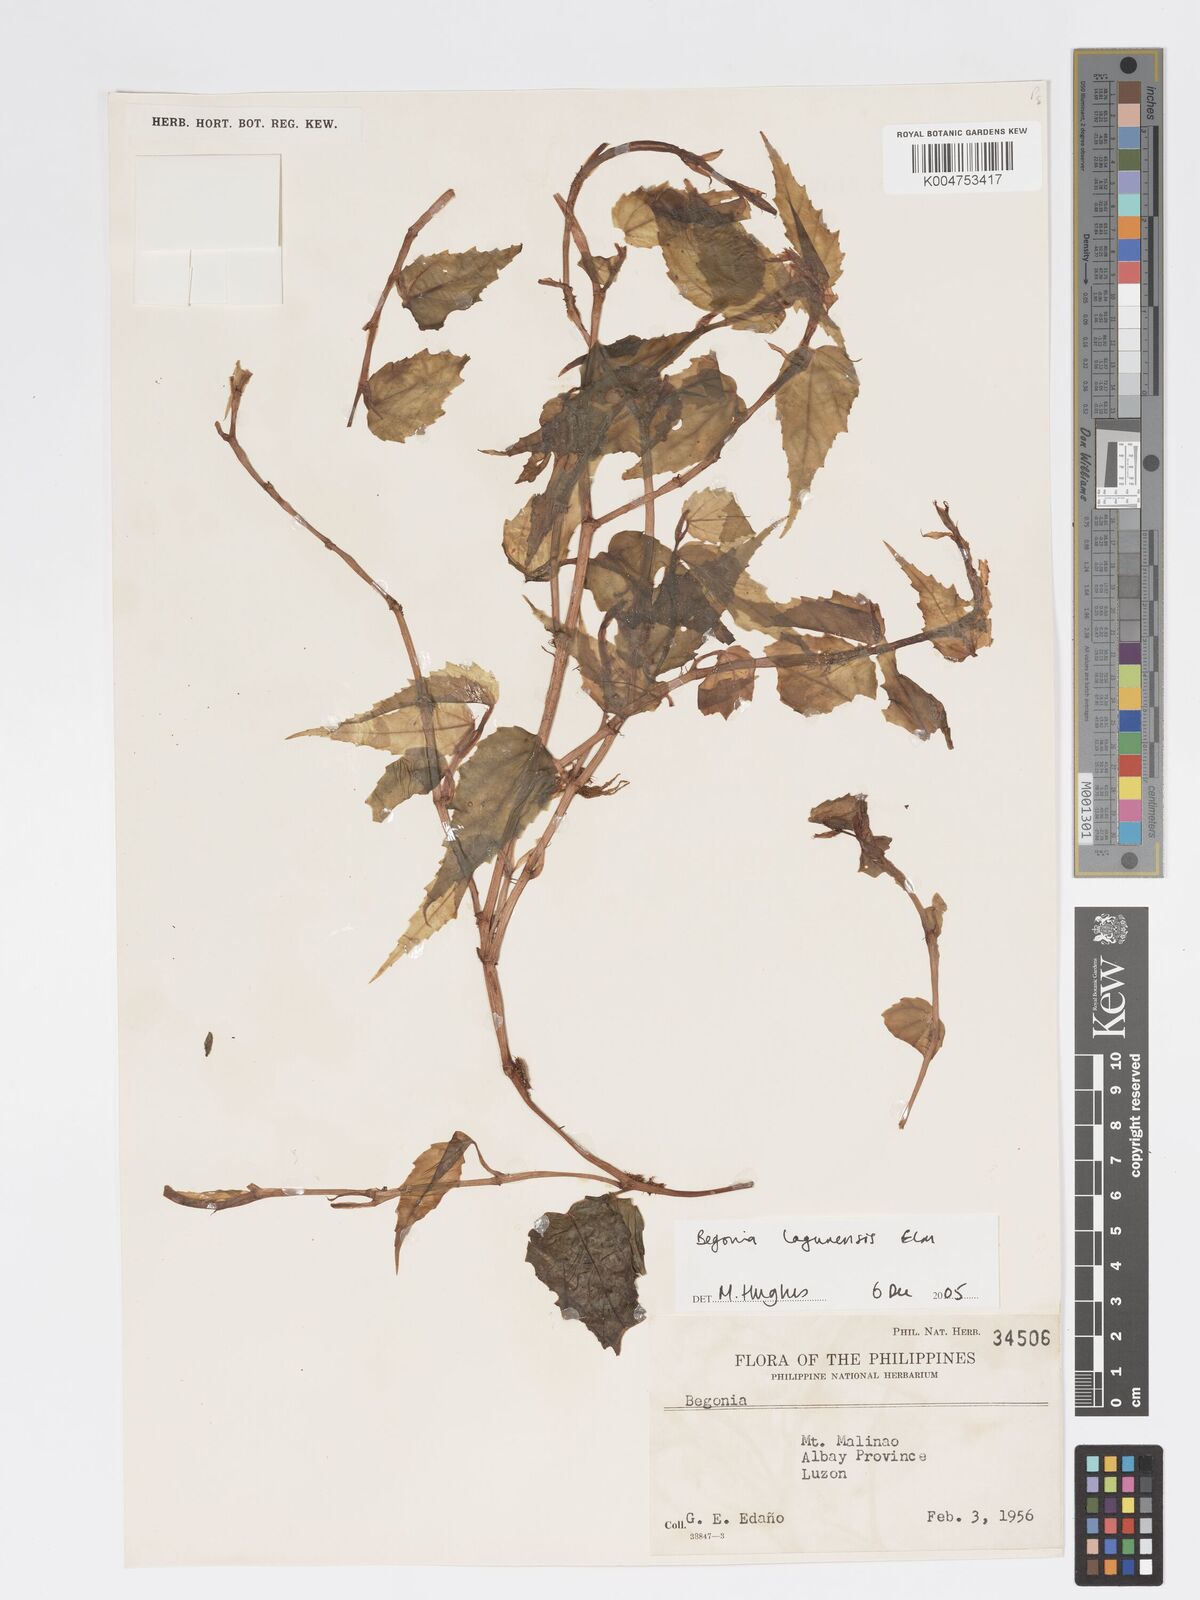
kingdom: Plantae
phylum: Tracheophyta
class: Magnoliopsida
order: Cucurbitales
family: Begoniaceae
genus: Begonia
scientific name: Begonia lagunensis
